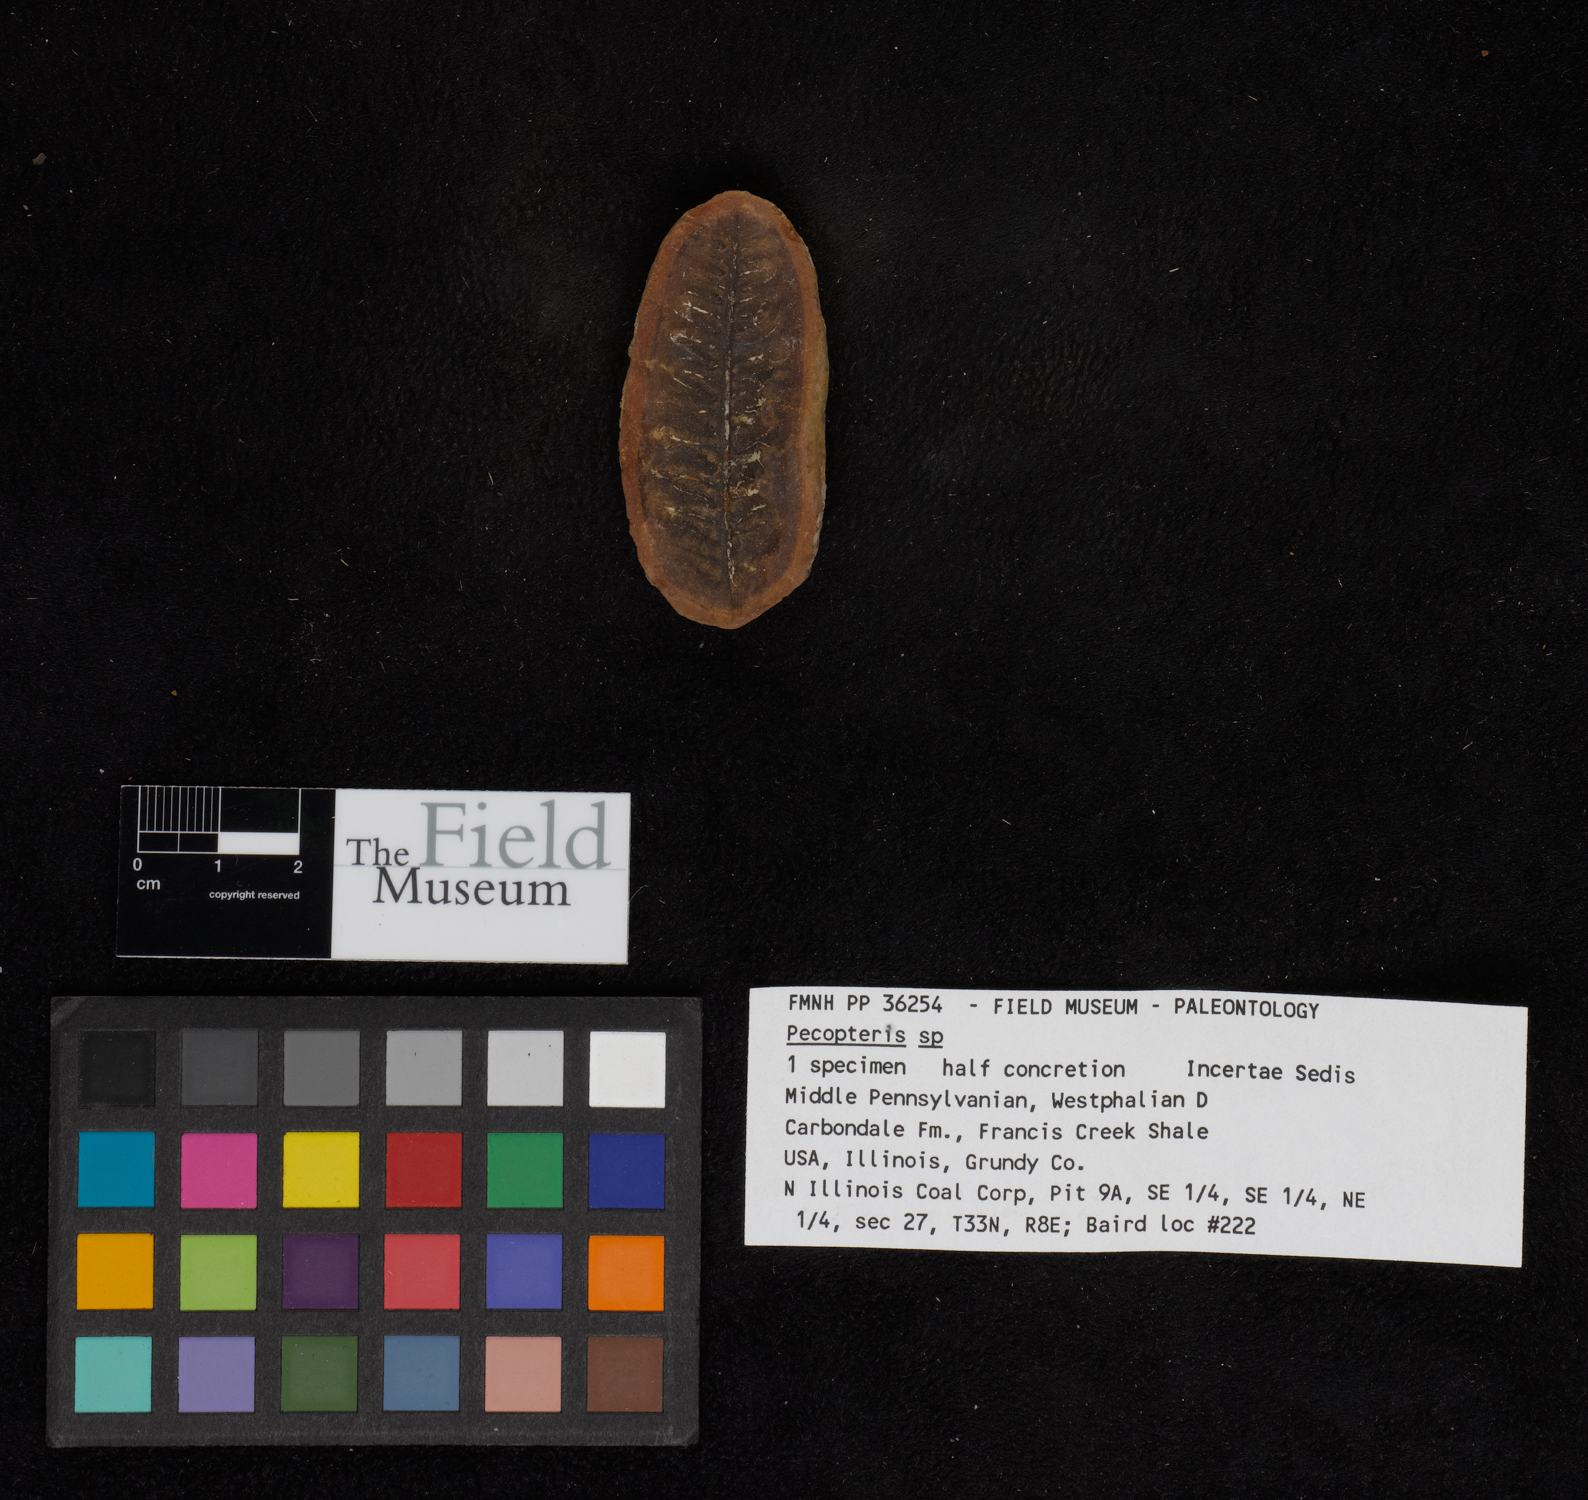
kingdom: Plantae
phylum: Tracheophyta
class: Polypodiopsida
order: Marattiales
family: Asterothecaceae
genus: Pecopteris
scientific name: Pecopteris
